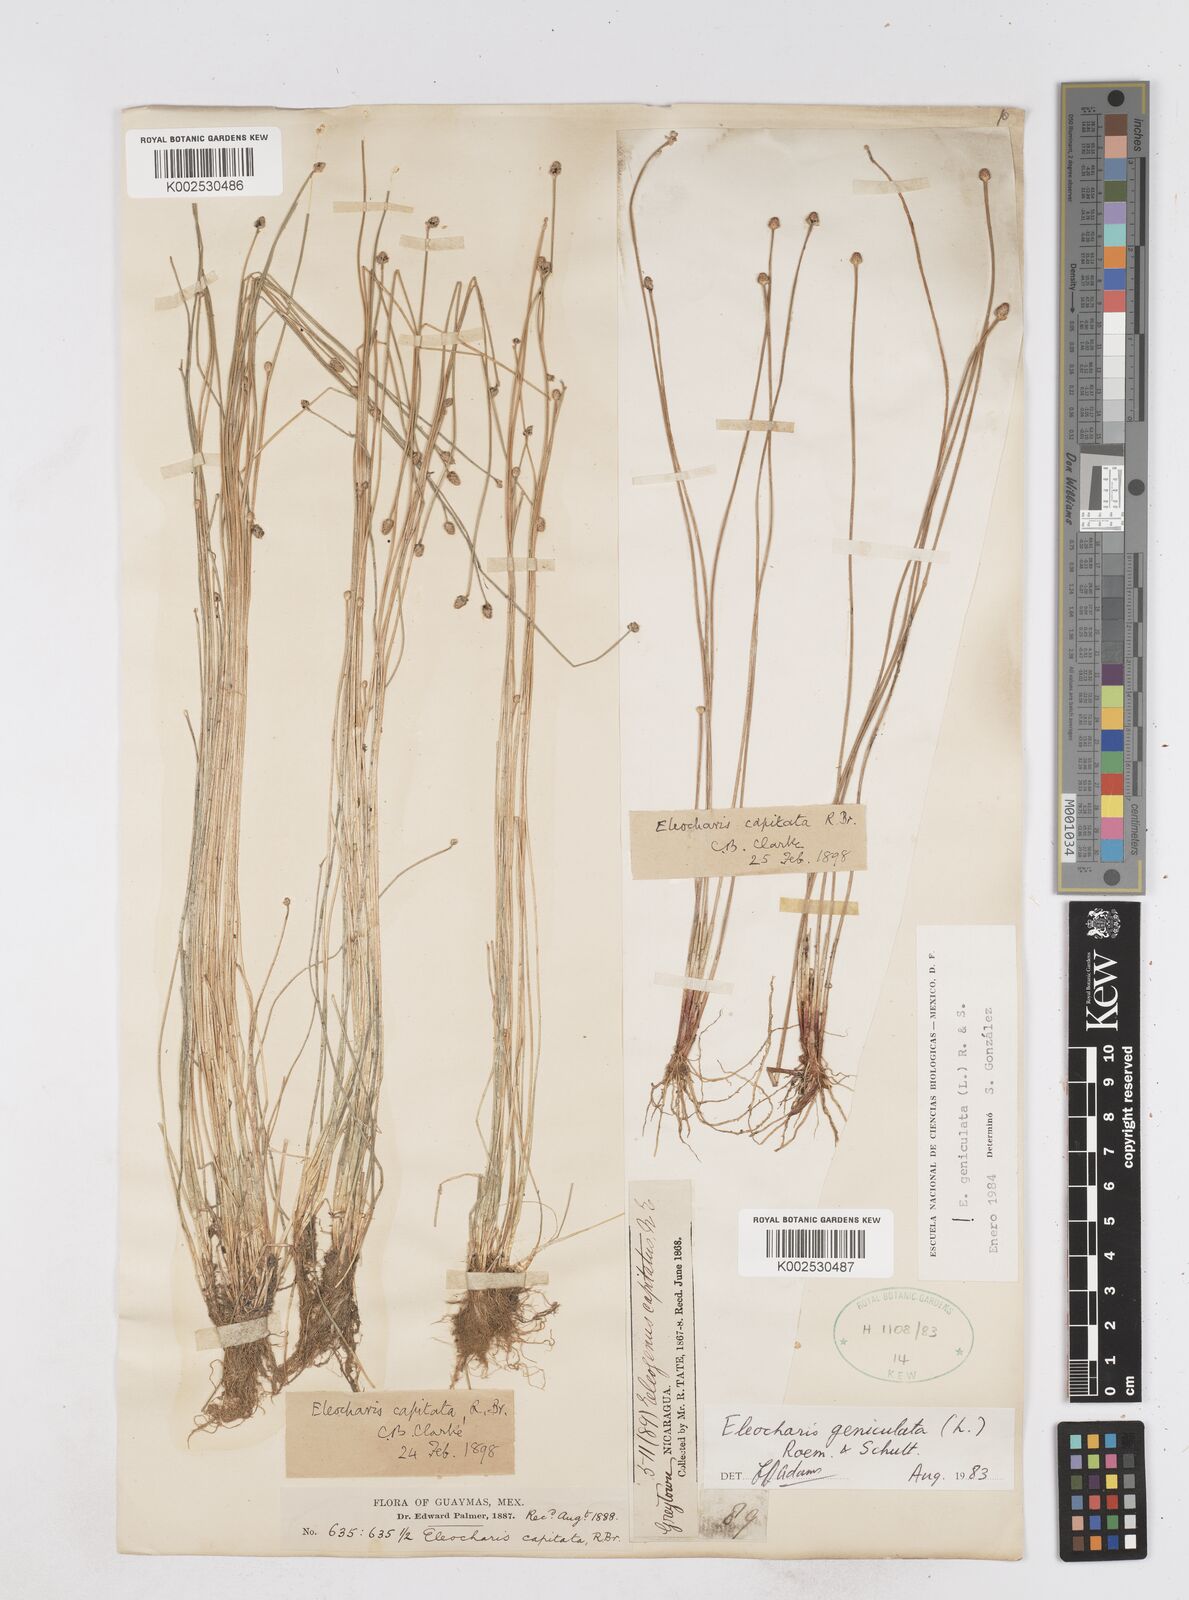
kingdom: Plantae
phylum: Tracheophyta
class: Liliopsida
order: Poales
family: Cyperaceae
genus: Eleocharis
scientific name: Eleocharis geniculata
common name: Canada spikesedge
